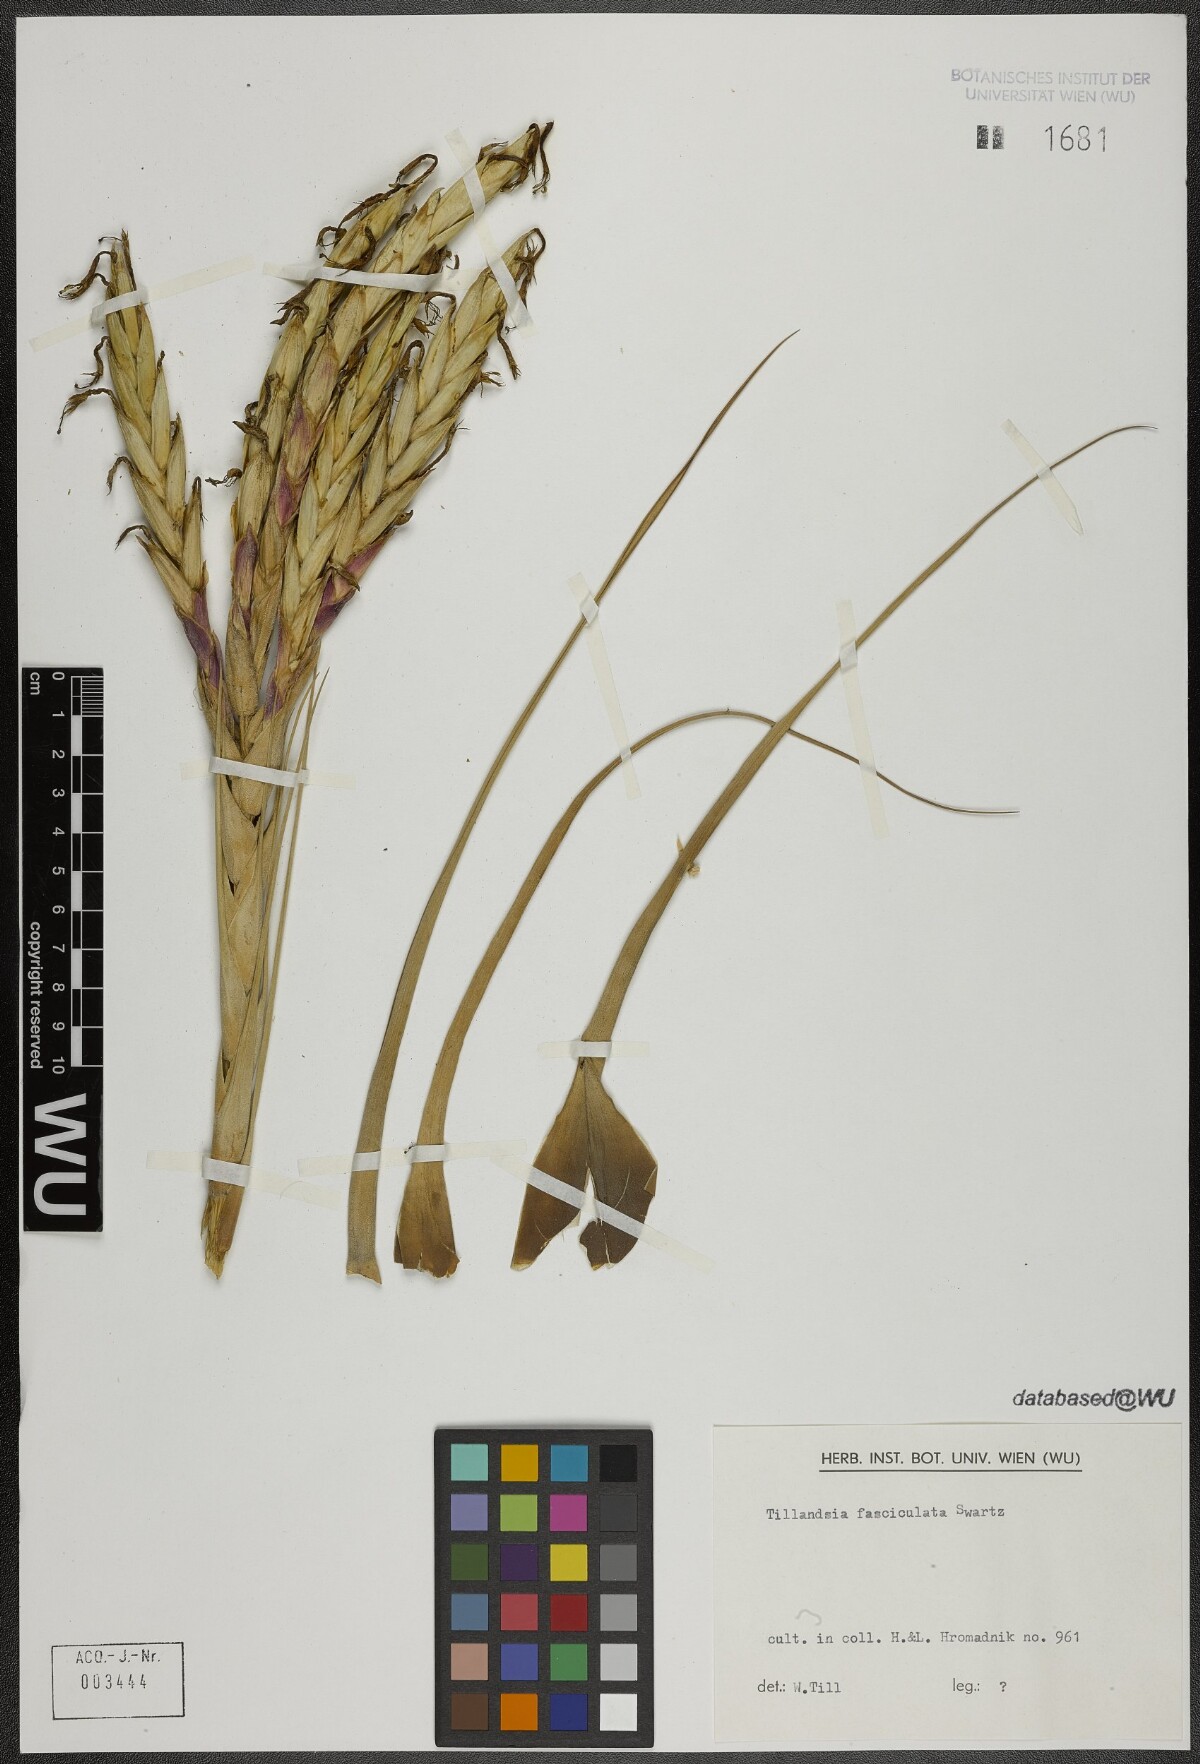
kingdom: Plantae
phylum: Tracheophyta
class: Liliopsida
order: Poales
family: Bromeliaceae
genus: Tillandsia
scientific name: Tillandsia fasciculata
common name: Giant airplant
